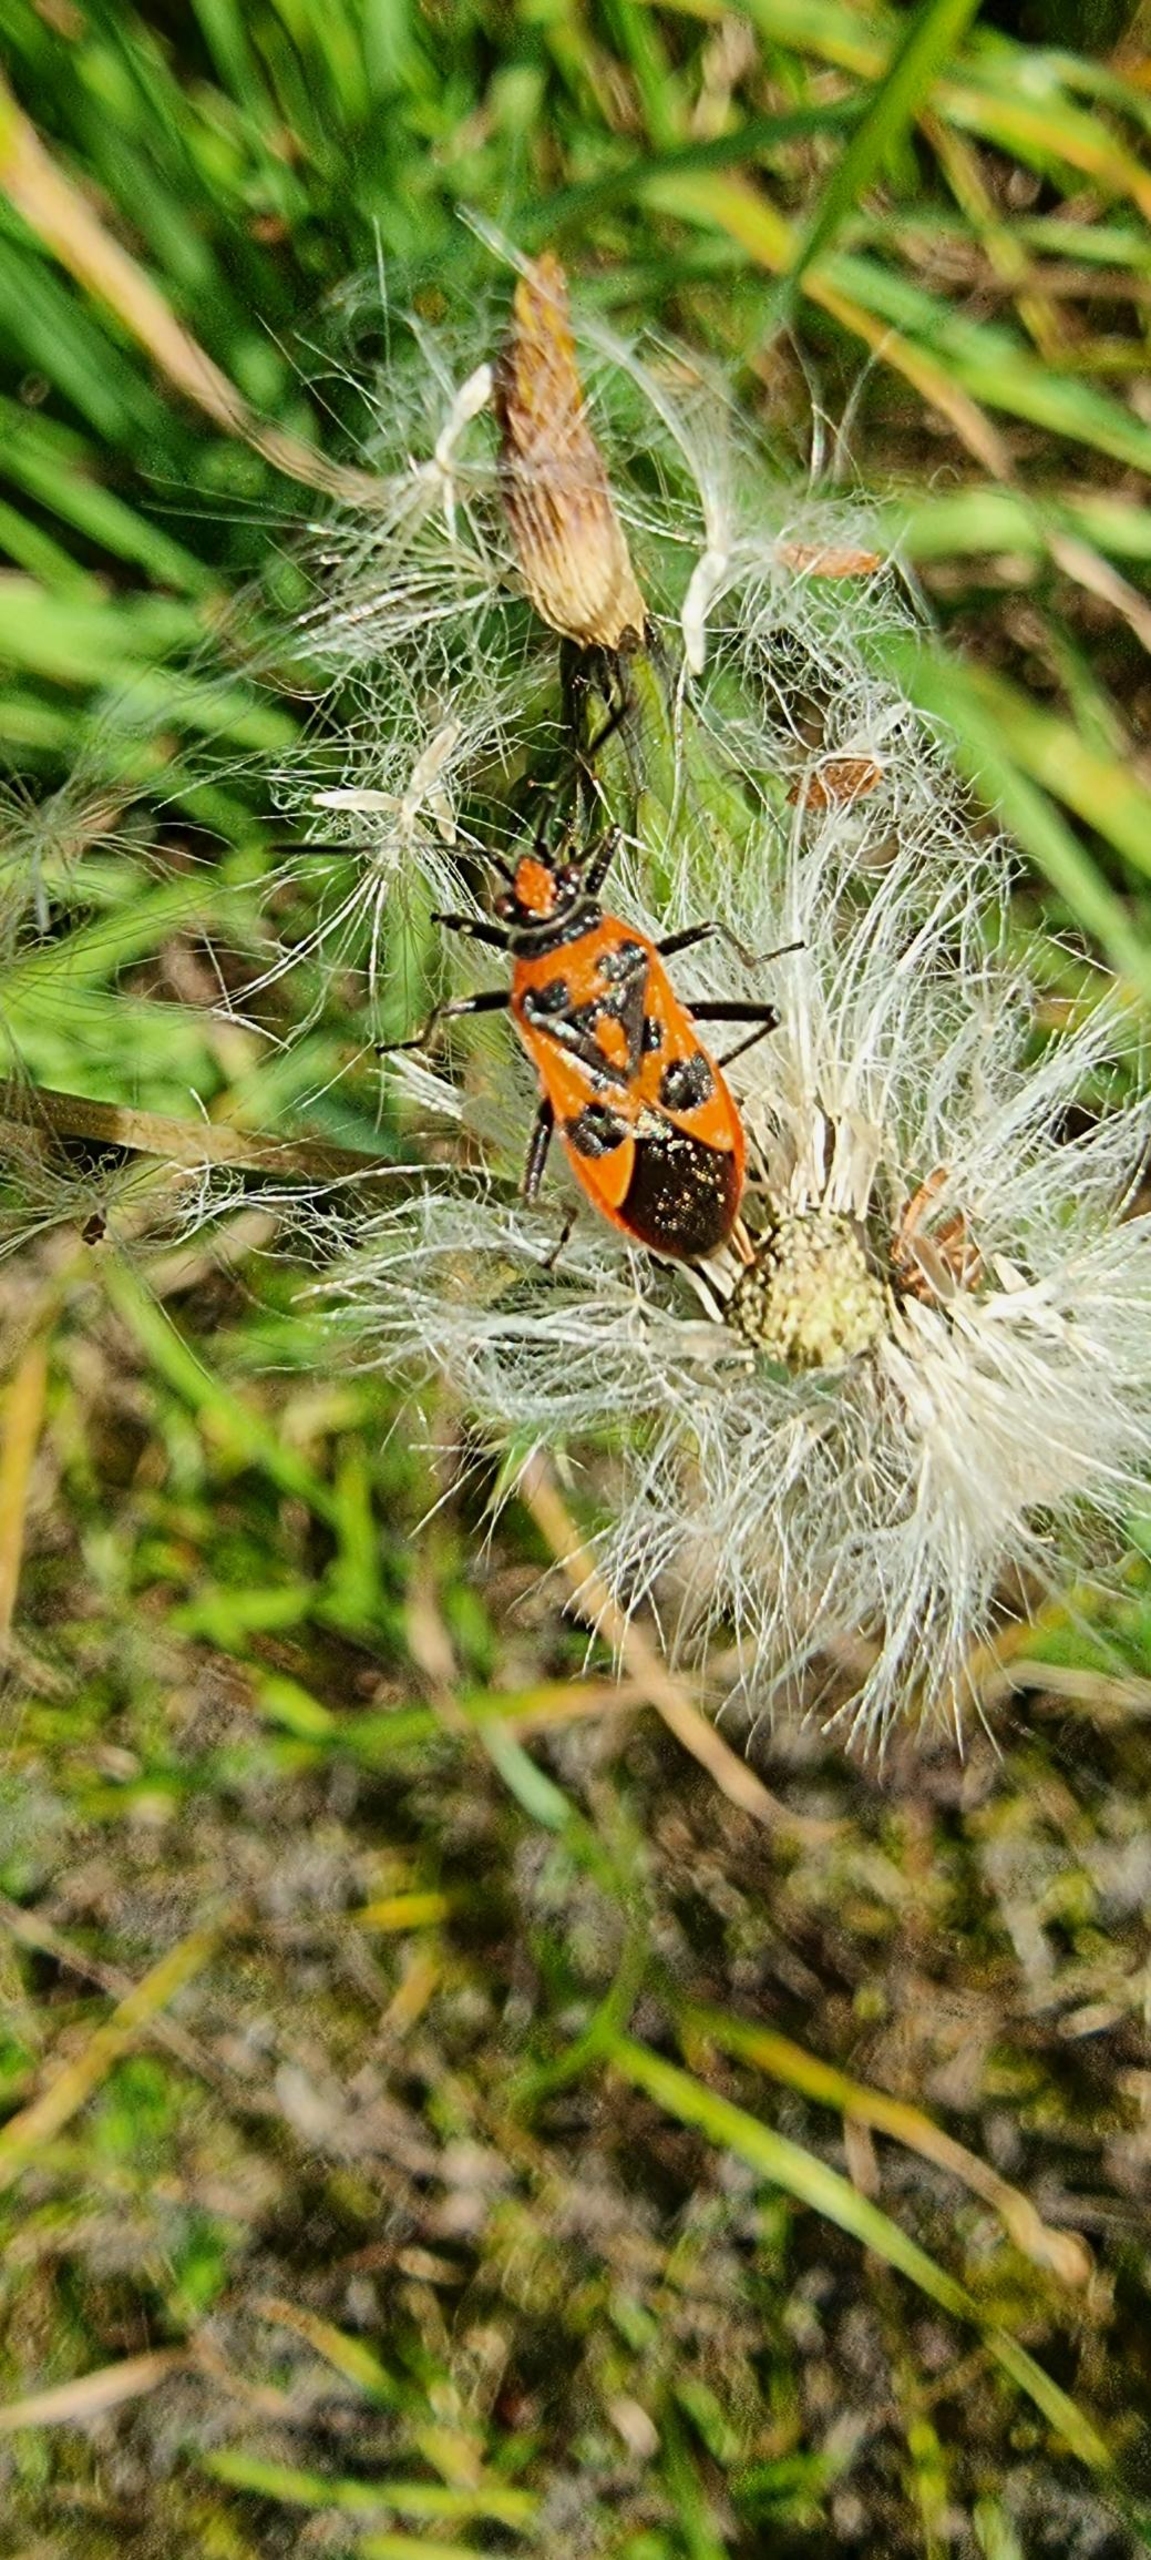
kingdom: Animalia
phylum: Arthropoda
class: Insecta
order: Hemiptera
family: Rhopalidae
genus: Corizus
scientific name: Corizus hyoscyami
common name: Rød kanttæge
